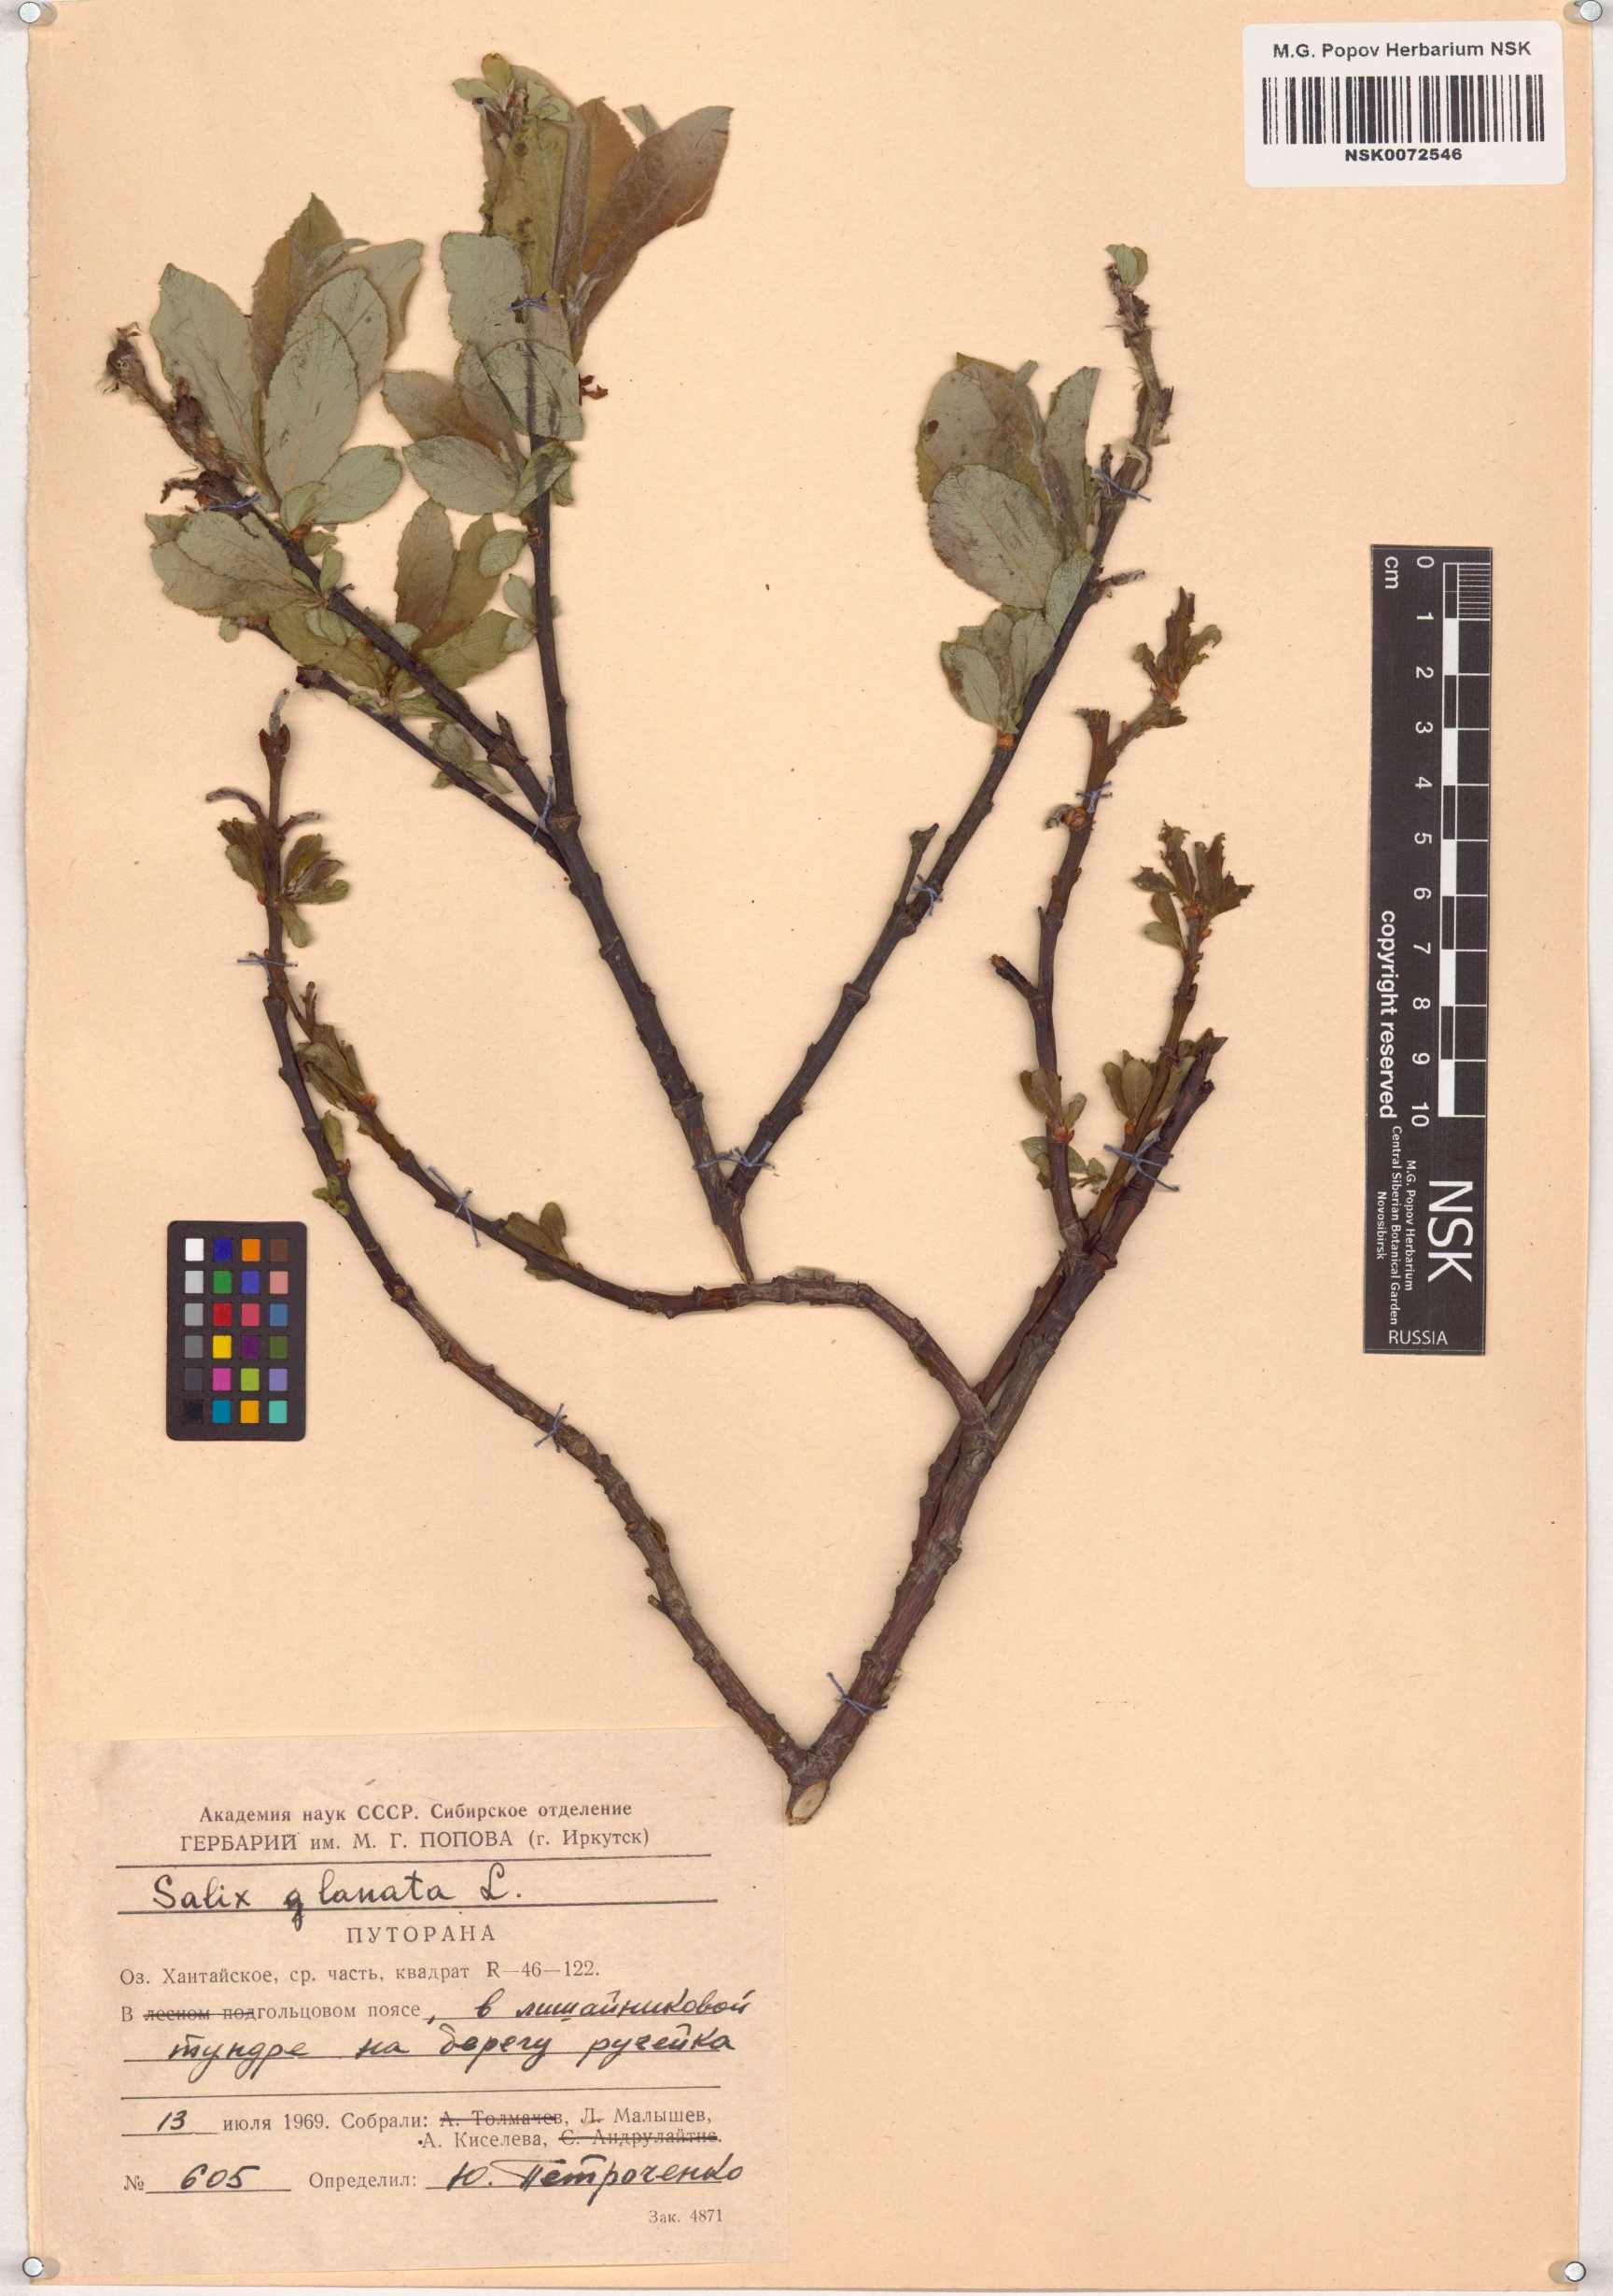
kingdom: Plantae
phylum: Tracheophyta
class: Magnoliopsida
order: Malpighiales
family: Salicaceae
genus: Salix
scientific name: Salix lanata
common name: Woolly willow
